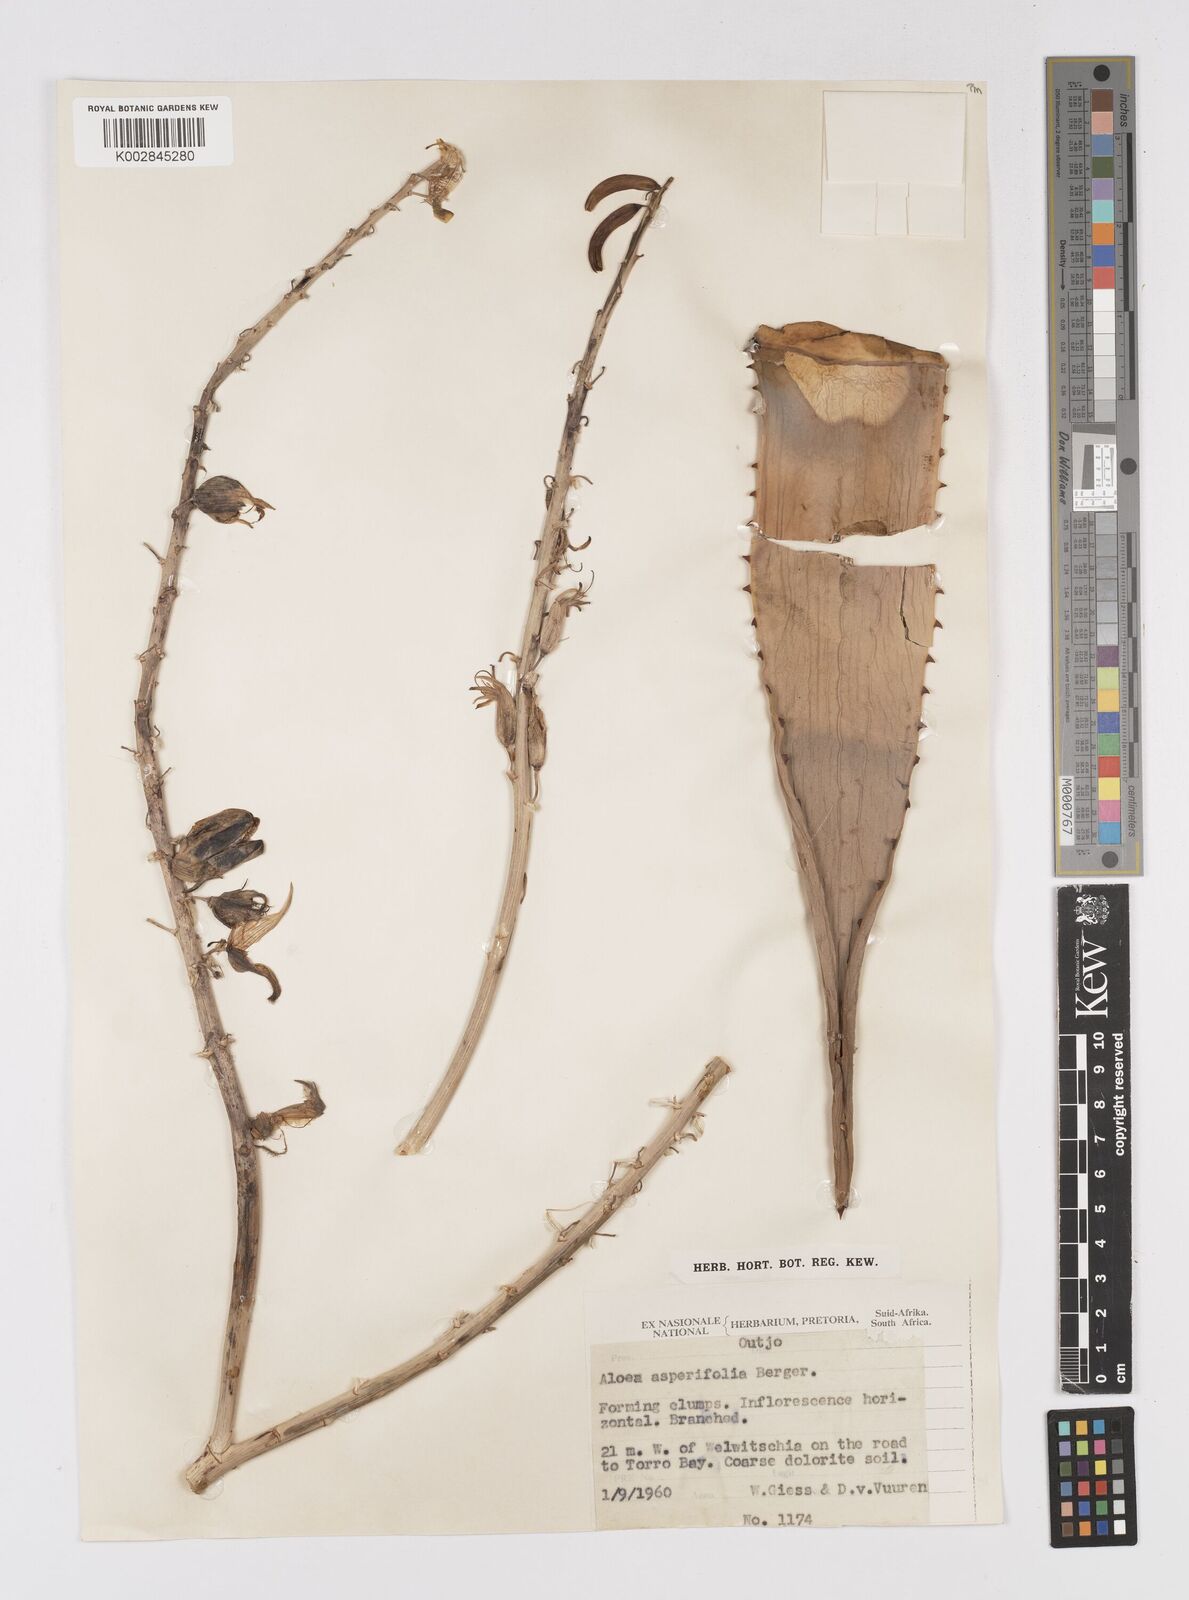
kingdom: Plantae
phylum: Tracheophyta
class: Liliopsida
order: Asparagales
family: Asphodelaceae
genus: Aloe
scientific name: Aloe asperifolia
